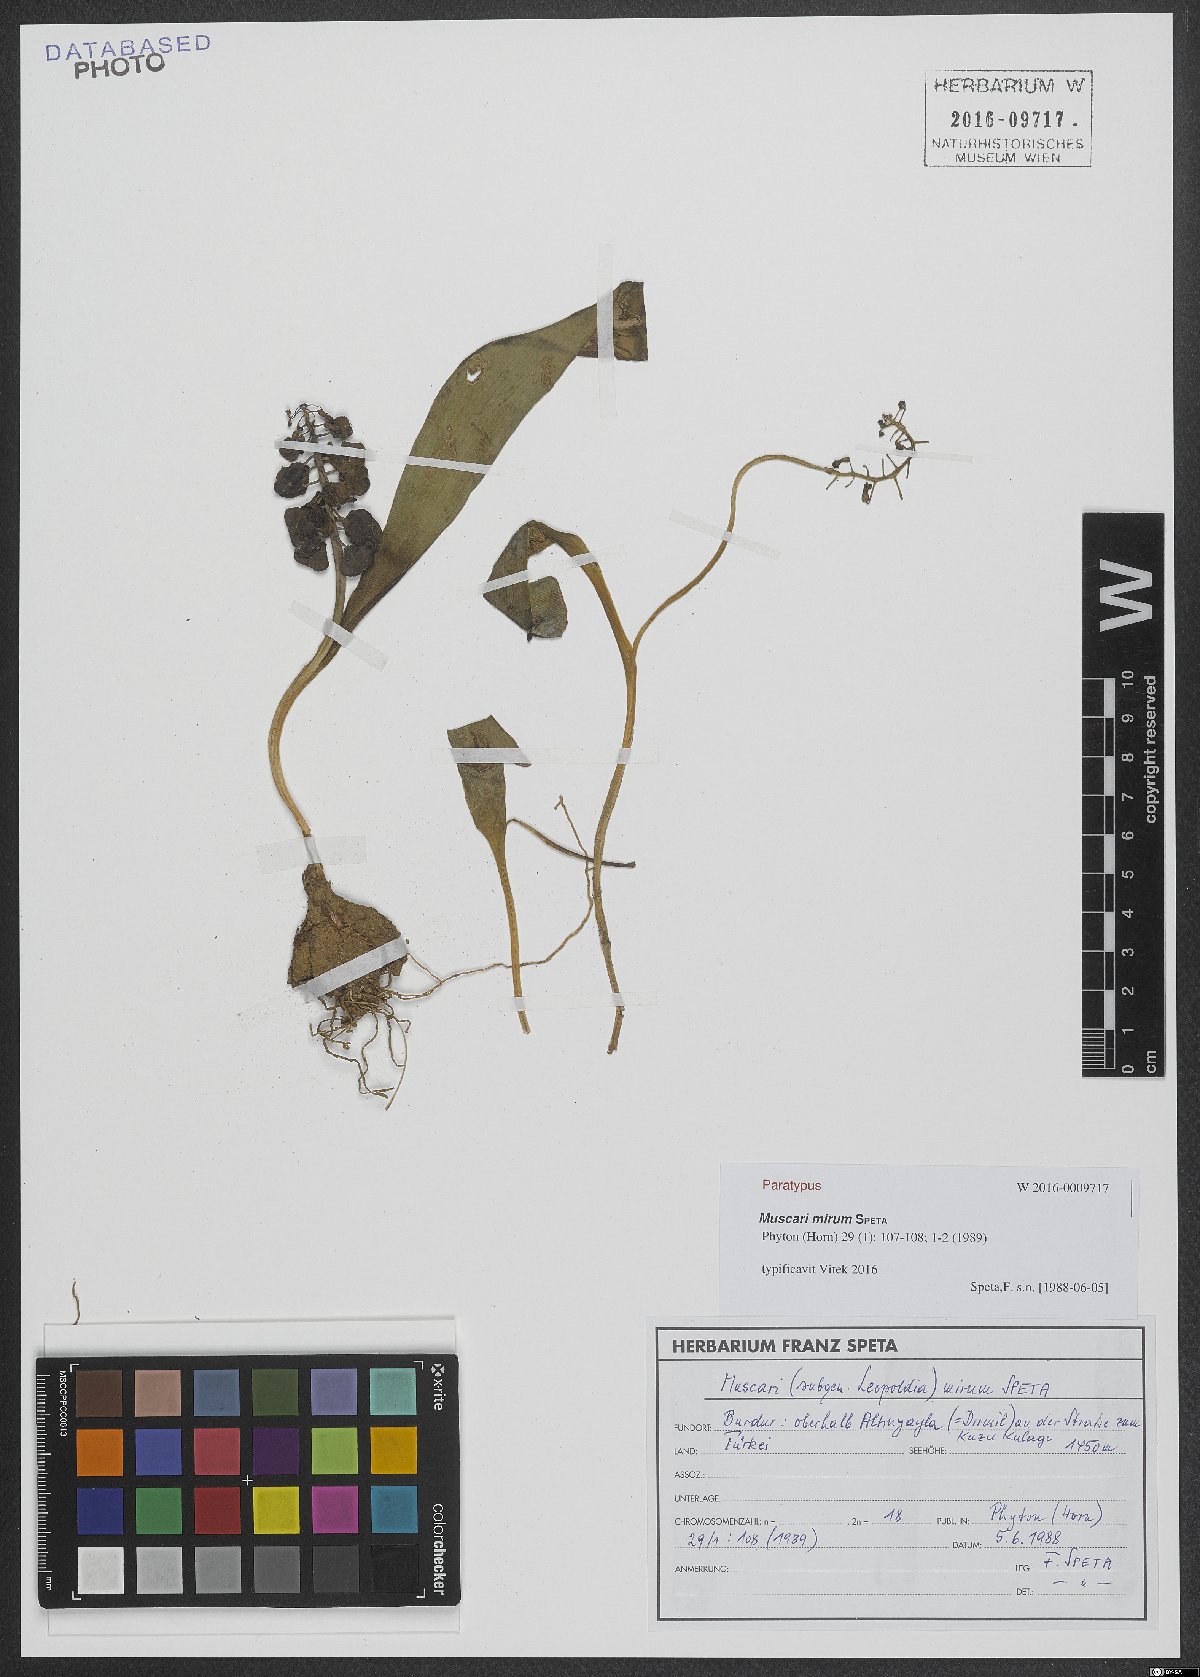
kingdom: Plantae
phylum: Tracheophyta
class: Liliopsida
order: Asparagales
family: Asparagaceae
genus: Muscari
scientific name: Muscari mirum
